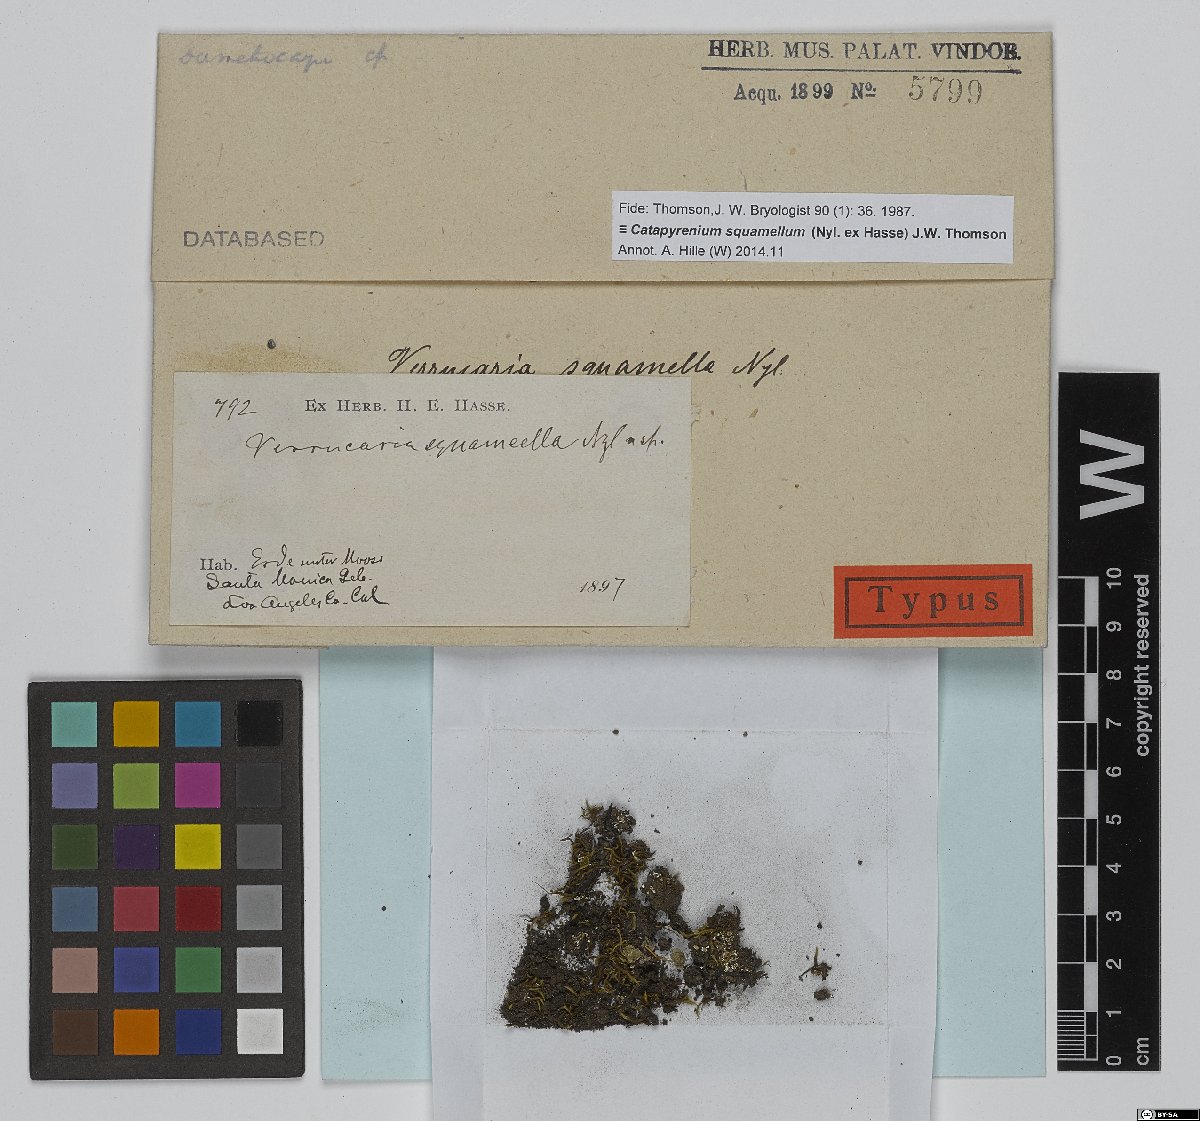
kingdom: Fungi
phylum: Ascomycota
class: Eurotiomycetes
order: Verrucariales
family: Verrucariaceae
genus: Verrucaria
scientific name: Verrucaria
